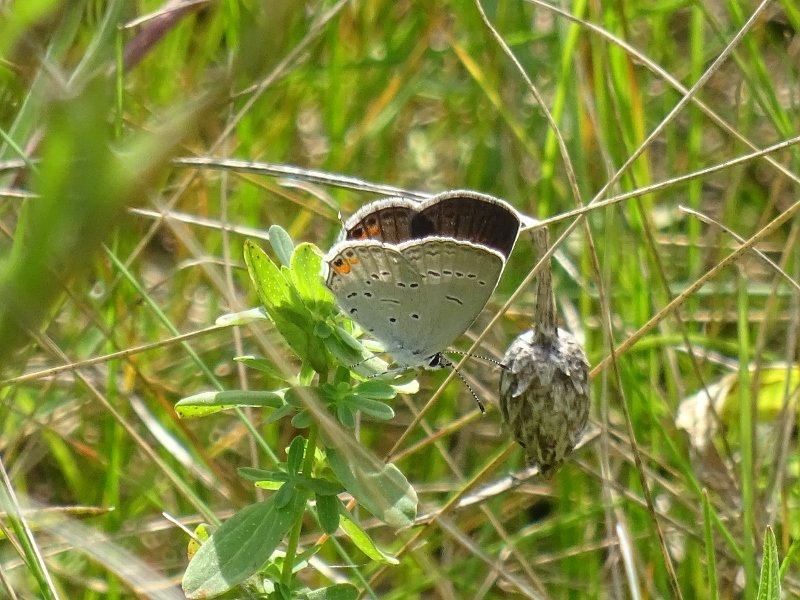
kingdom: Animalia
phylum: Arthropoda
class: Insecta
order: Lepidoptera
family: Lycaenidae
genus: Elkalyce
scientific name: Elkalyce comyntas
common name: Eastern Tailed-Blue
